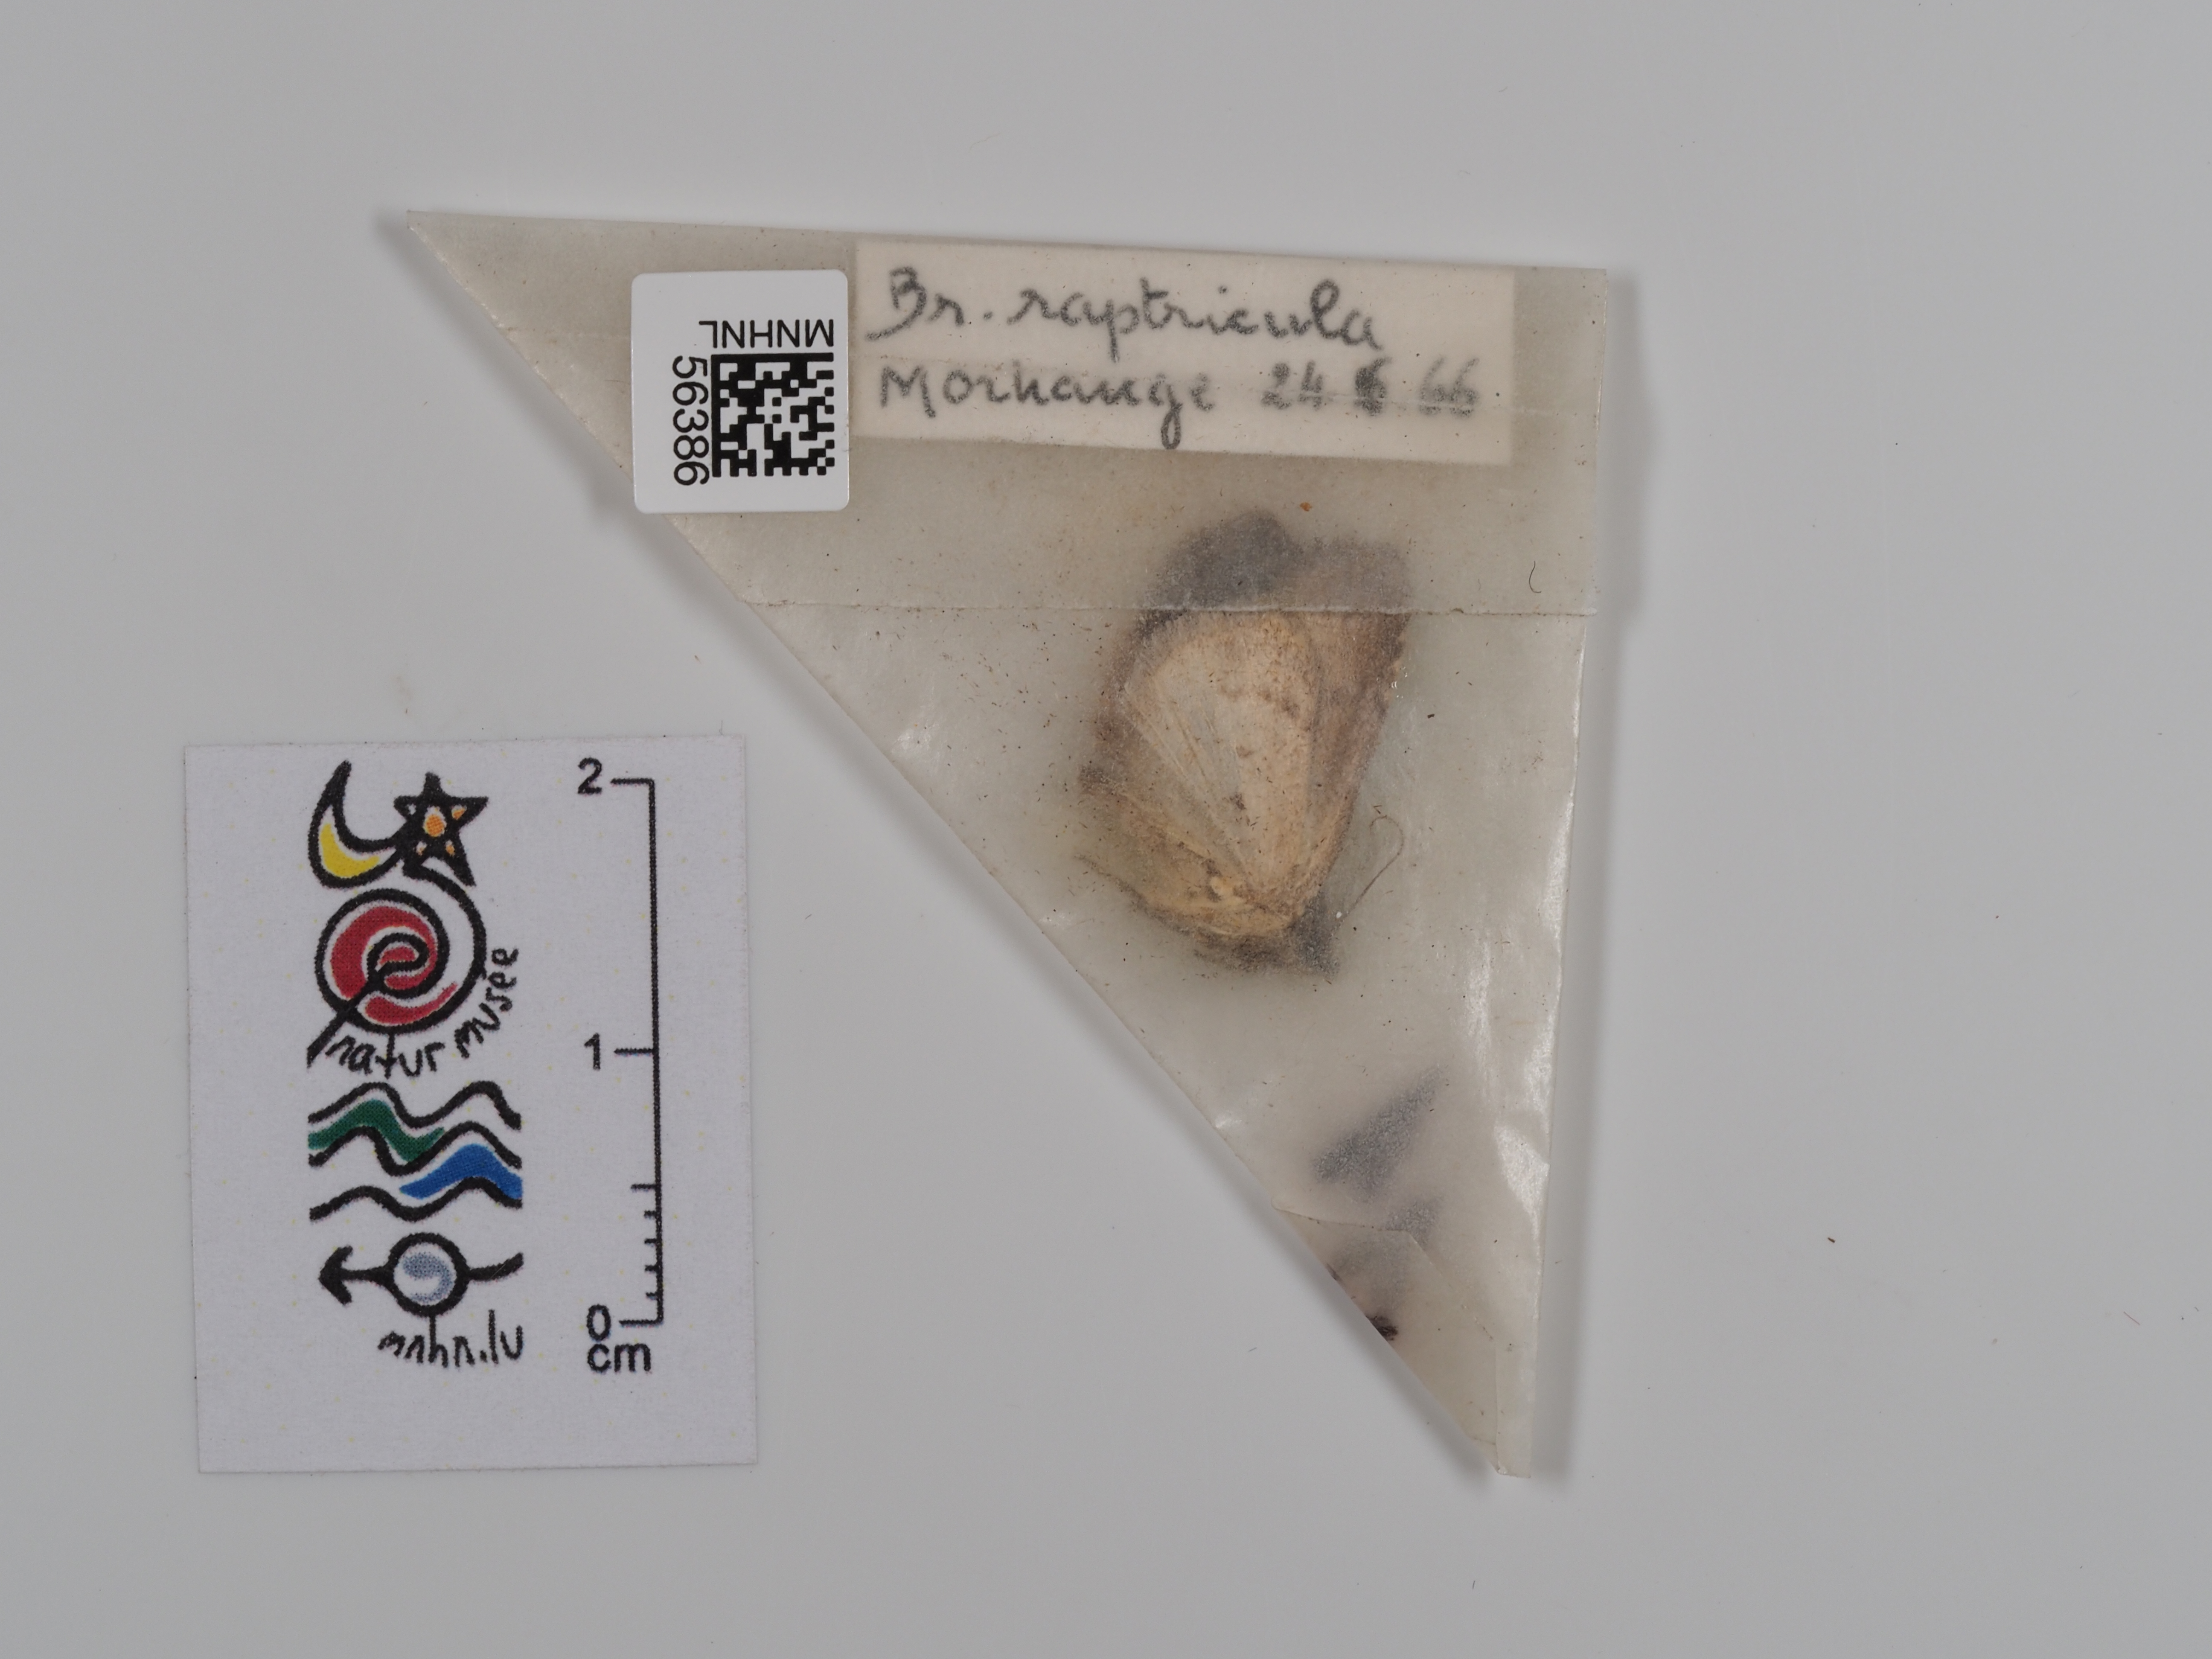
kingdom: Animalia
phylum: Arthropoda
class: Insecta
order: Lepidoptera
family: Noctuidae
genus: Bryophila
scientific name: Bryophila raptricula
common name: Marbled grey
